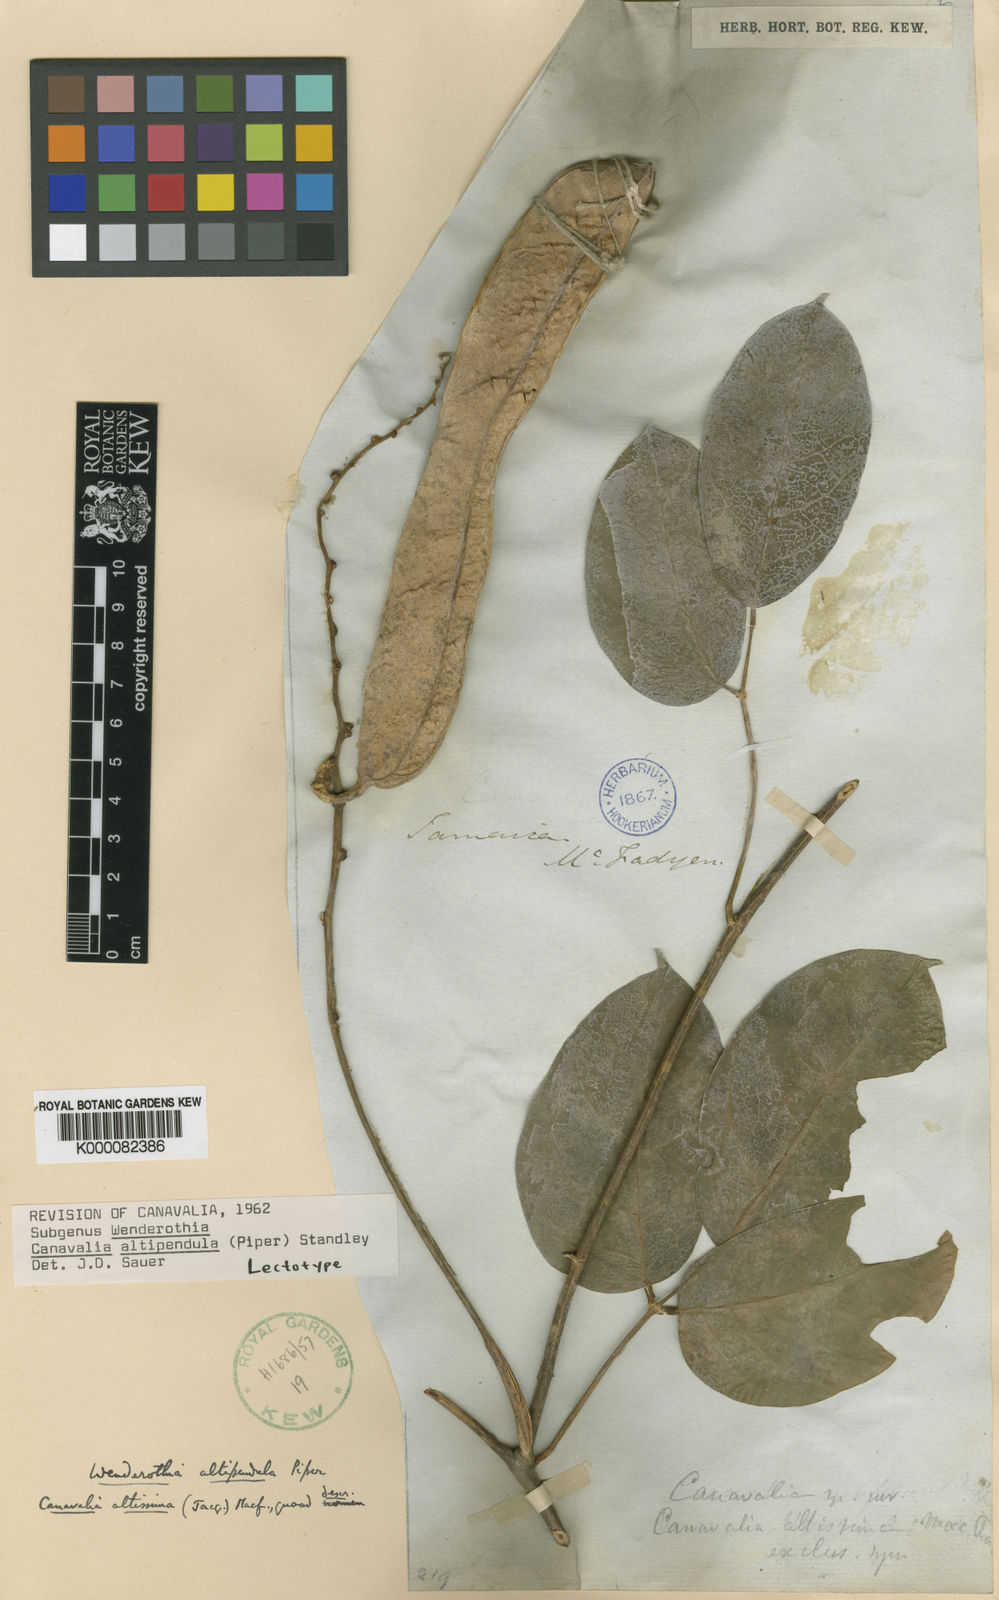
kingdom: Plantae
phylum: Tracheophyta
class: Magnoliopsida
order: Fabales
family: Fabaceae
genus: Canavalia
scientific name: Canavalia altipendula
